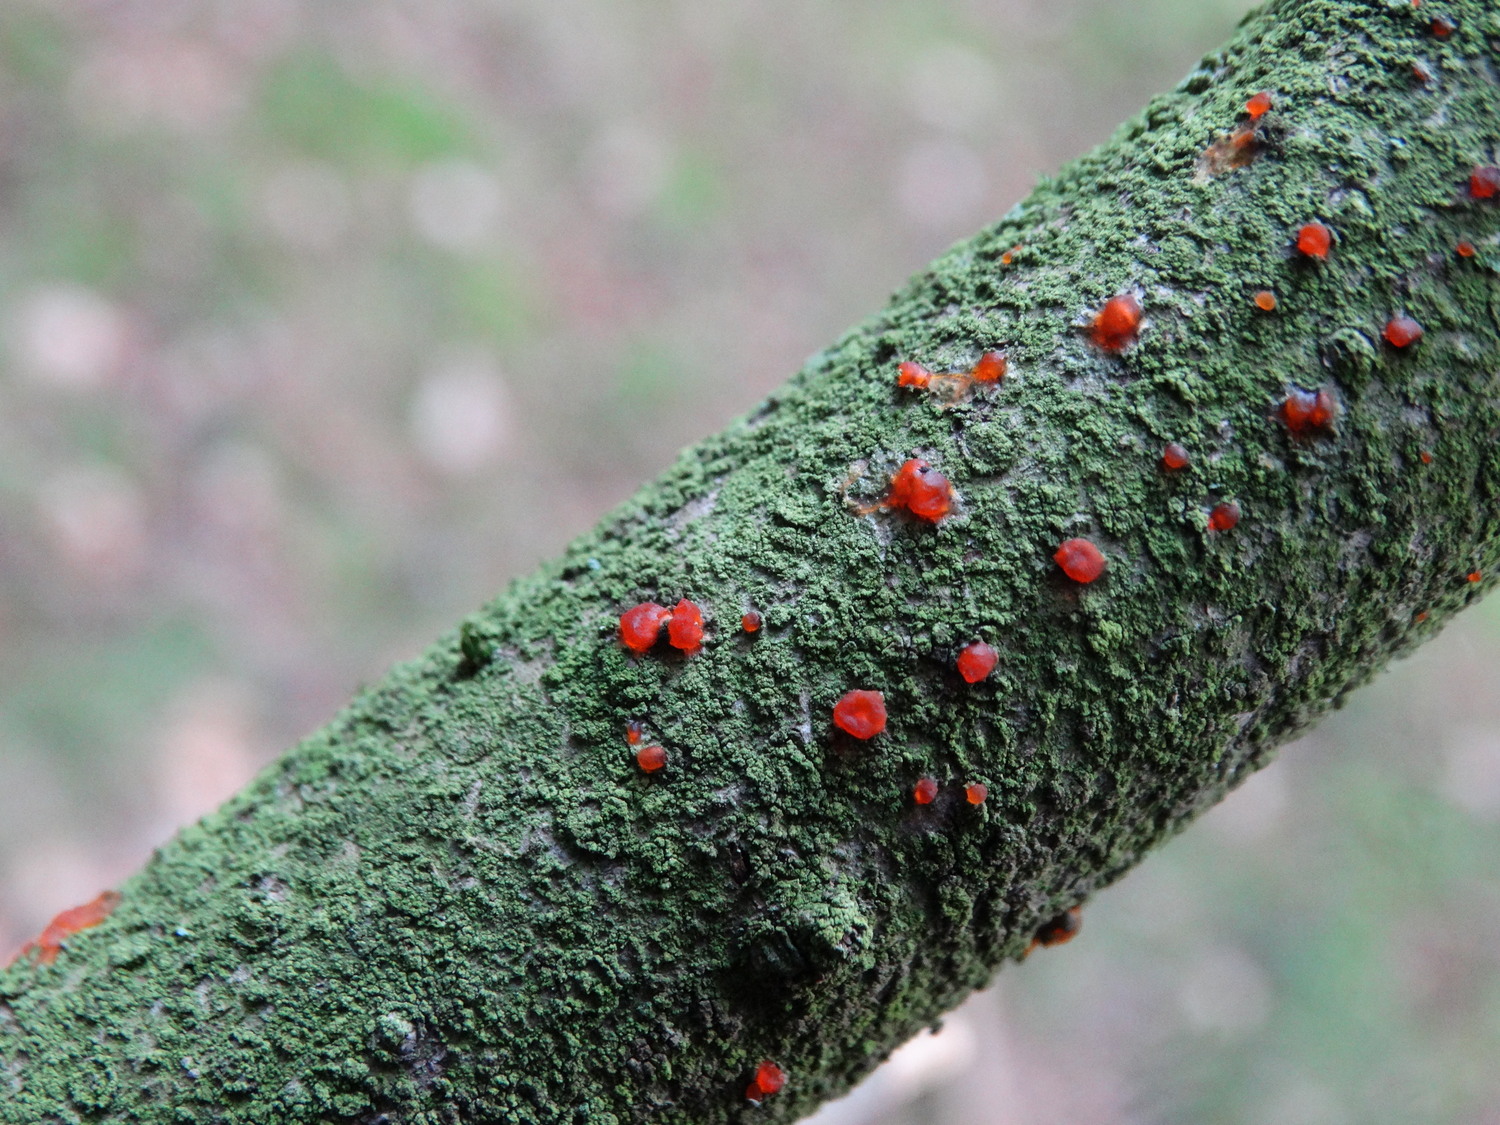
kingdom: Fungi
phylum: Basidiomycota
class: Dacrymycetes
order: Dacrymycetales
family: Dacrymycetaceae
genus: Dacrymyces
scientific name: Dacrymyces stillatus
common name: almindelig tåresvamp
